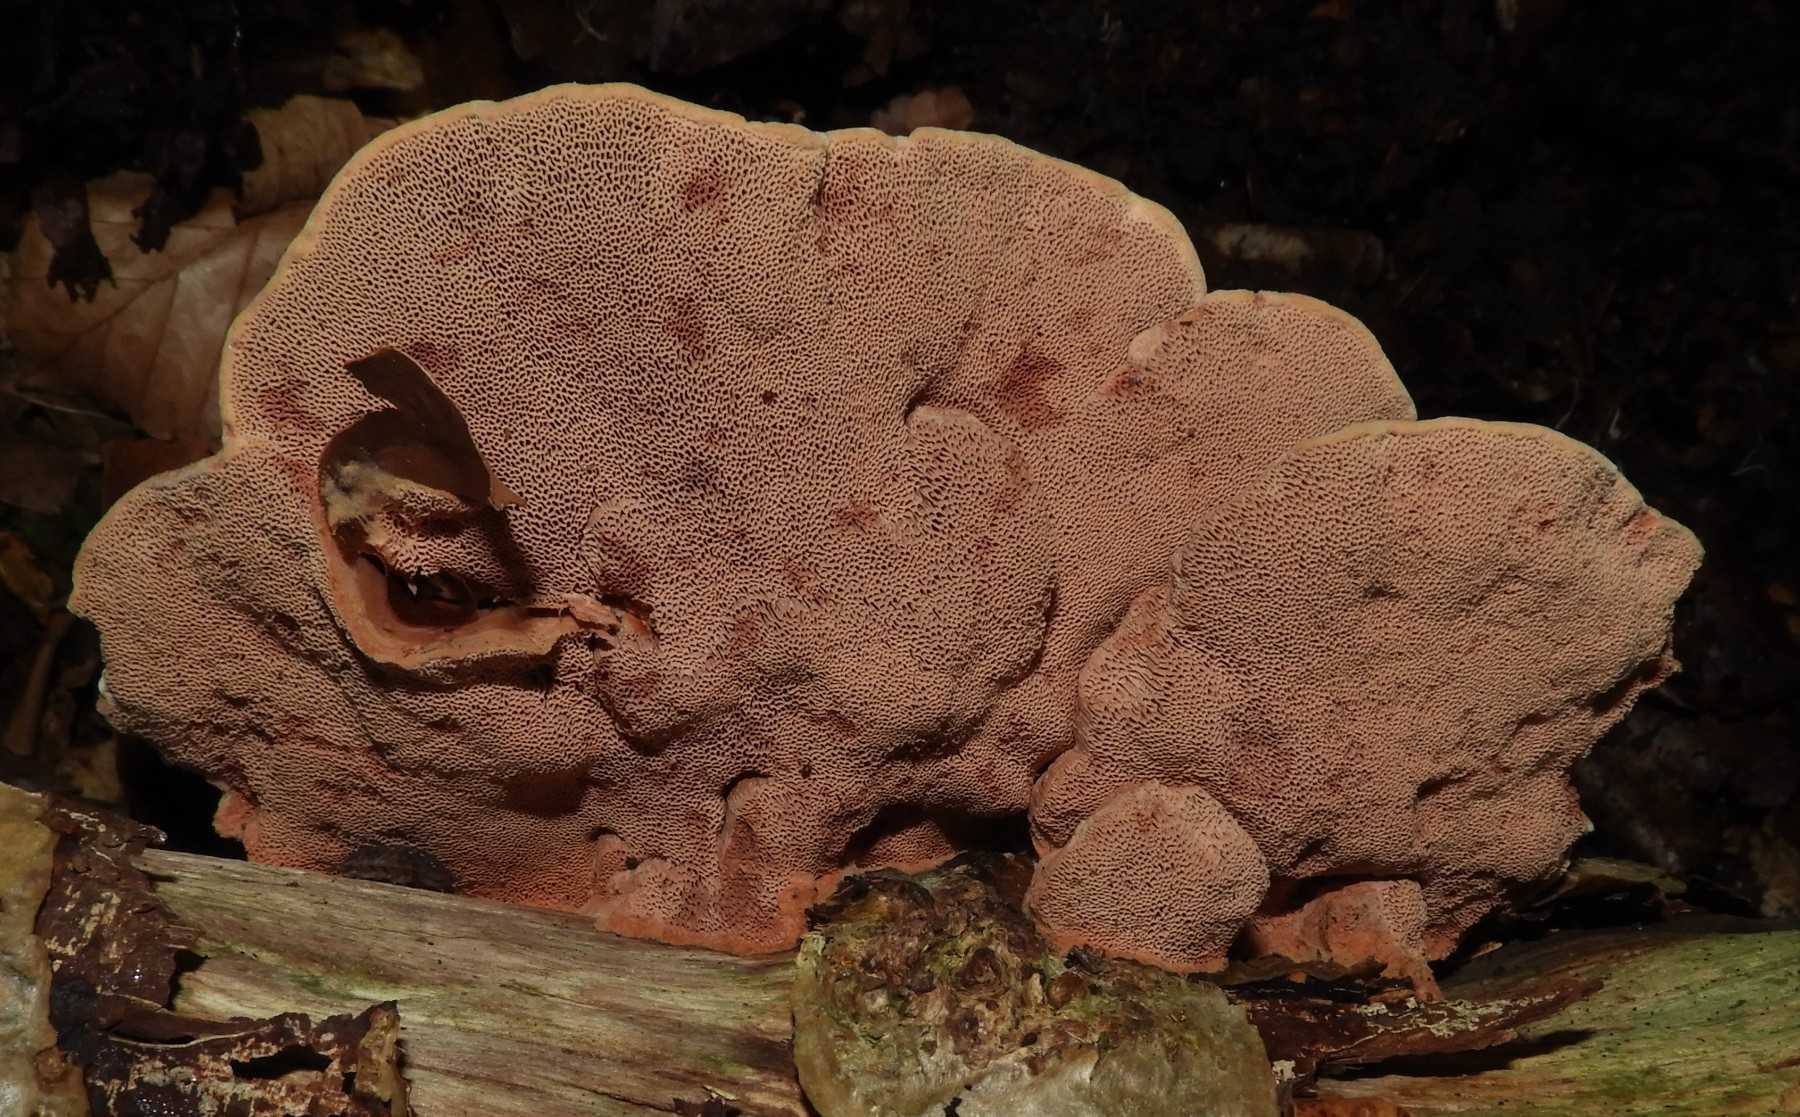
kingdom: Fungi
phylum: Basidiomycota
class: Agaricomycetes
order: Polyporales
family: Phanerochaetaceae
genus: Hapalopilus
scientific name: Hapalopilus rutilans
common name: rødlig okkerporesvamp
